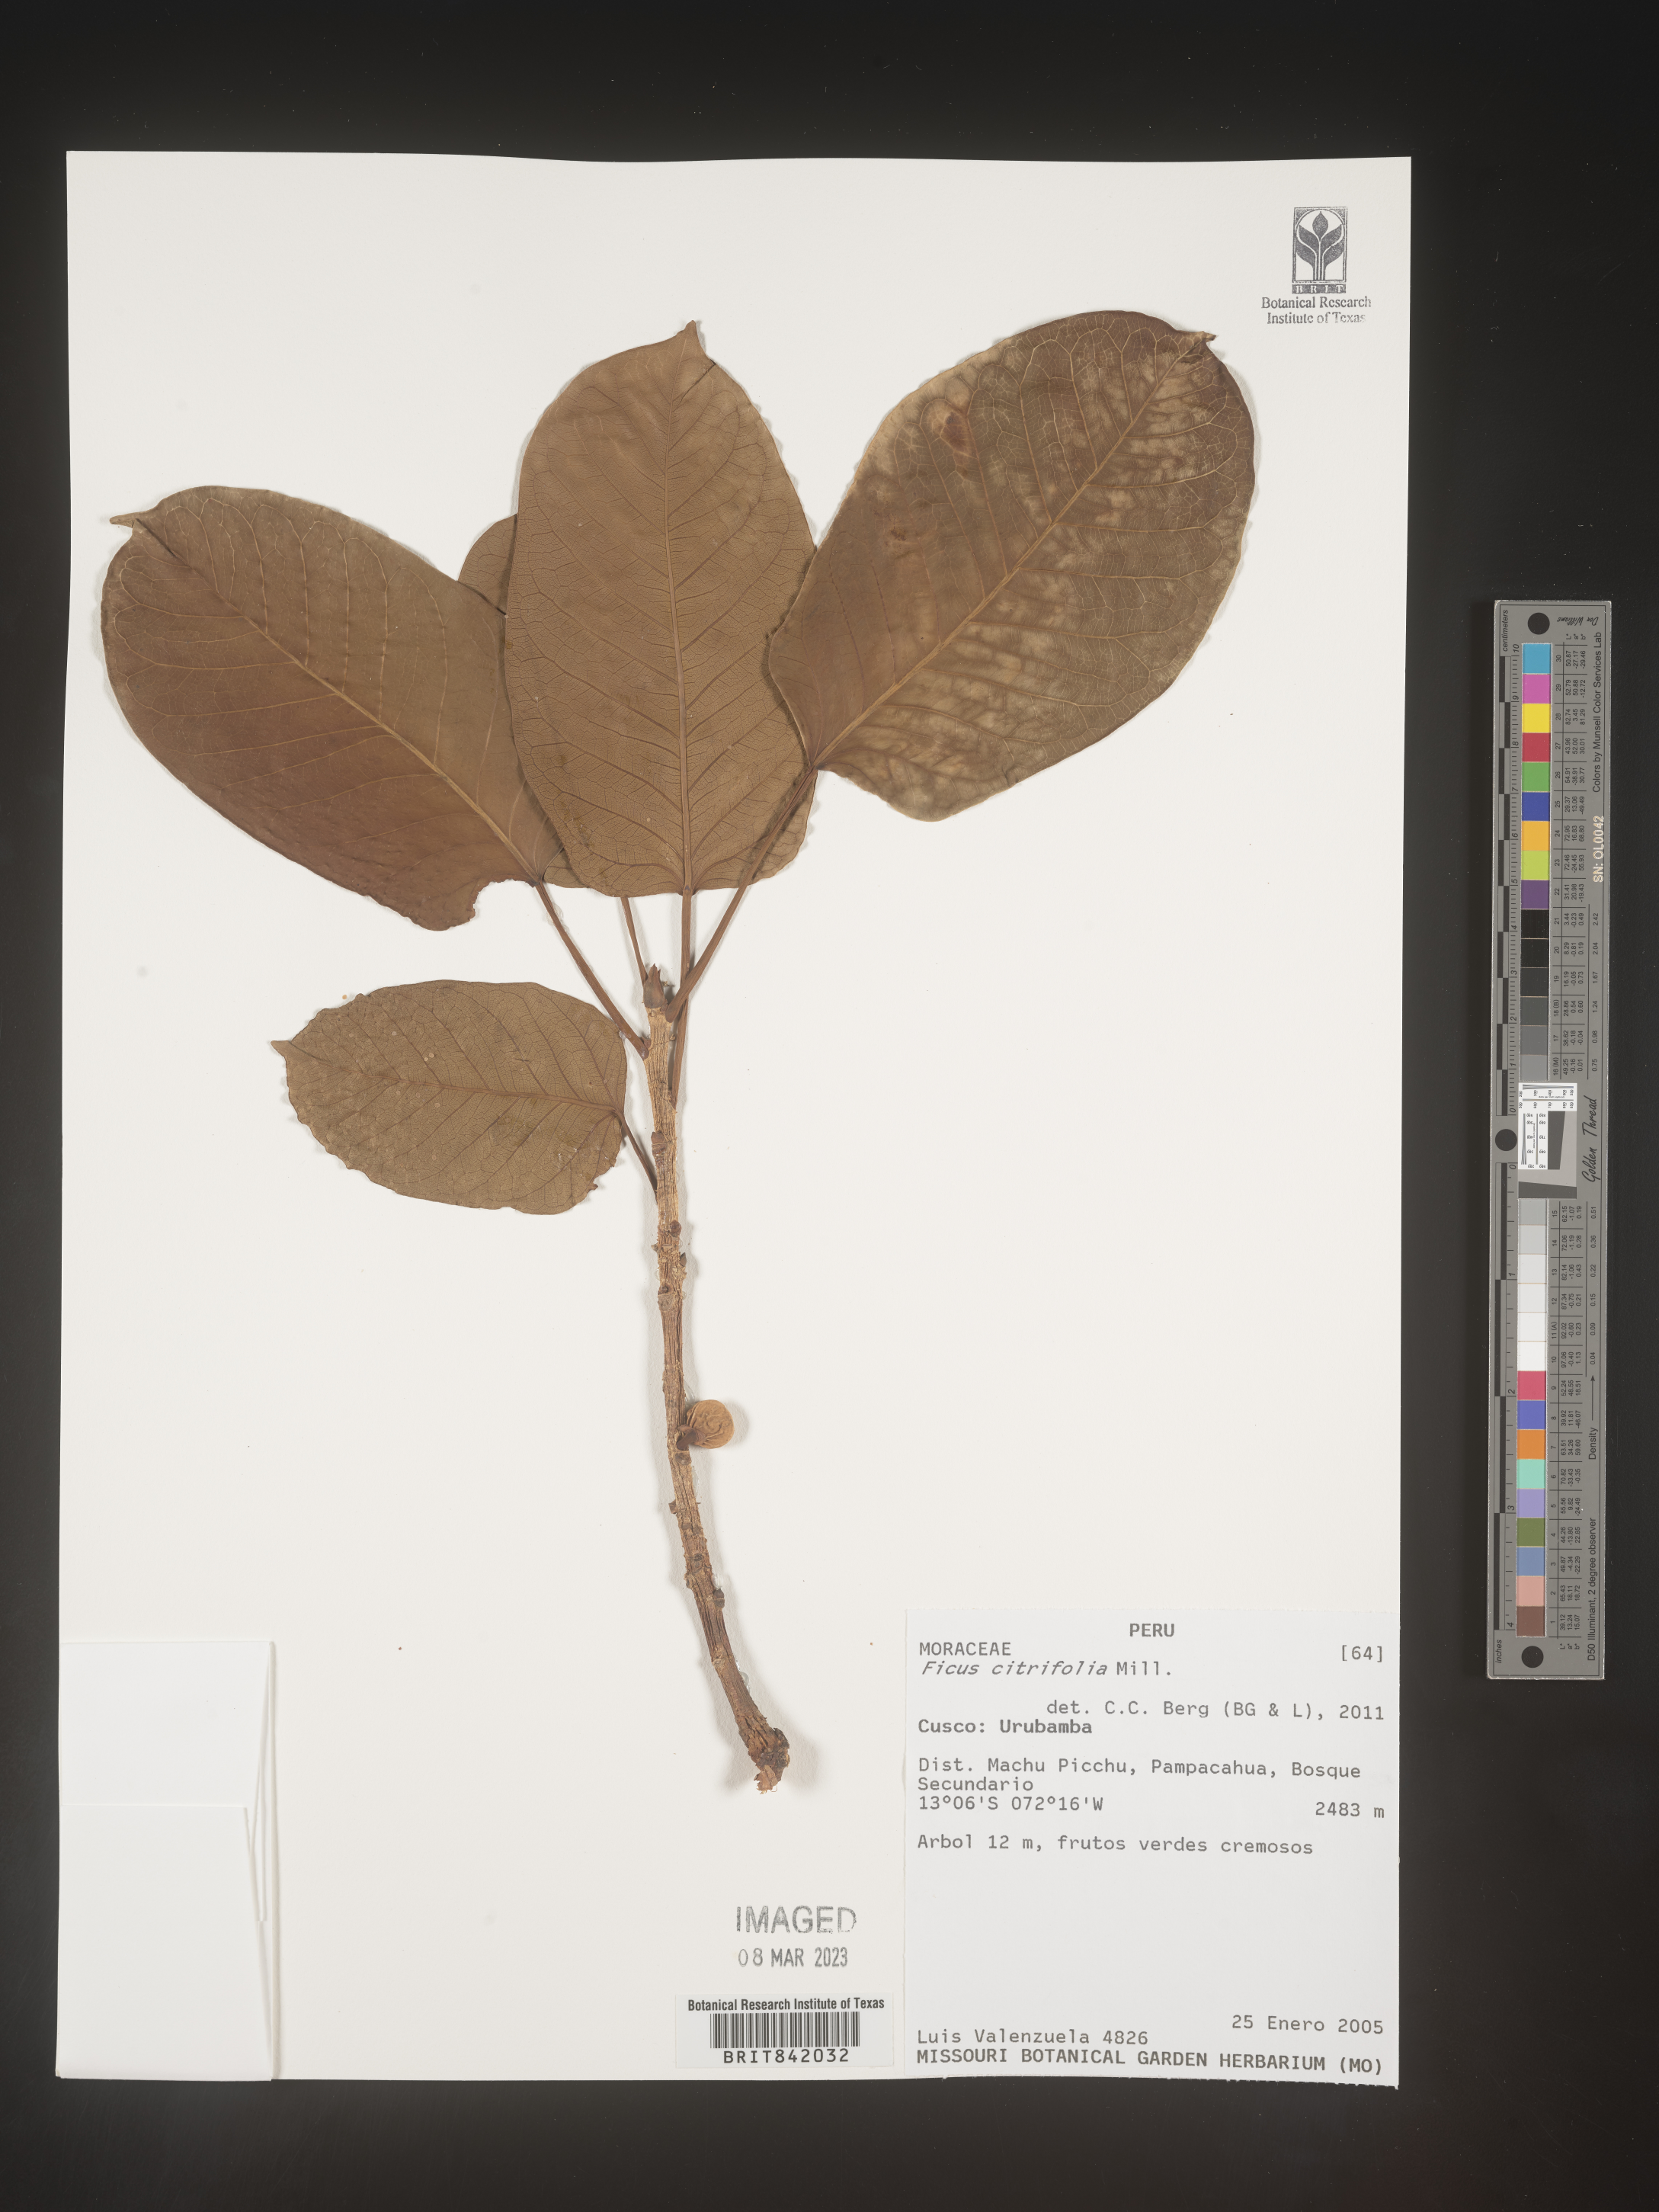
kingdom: Plantae
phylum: Tracheophyta
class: Magnoliopsida
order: Rosales
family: Moraceae
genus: Ficus
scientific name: Ficus citrifolia
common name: Strangler fig
